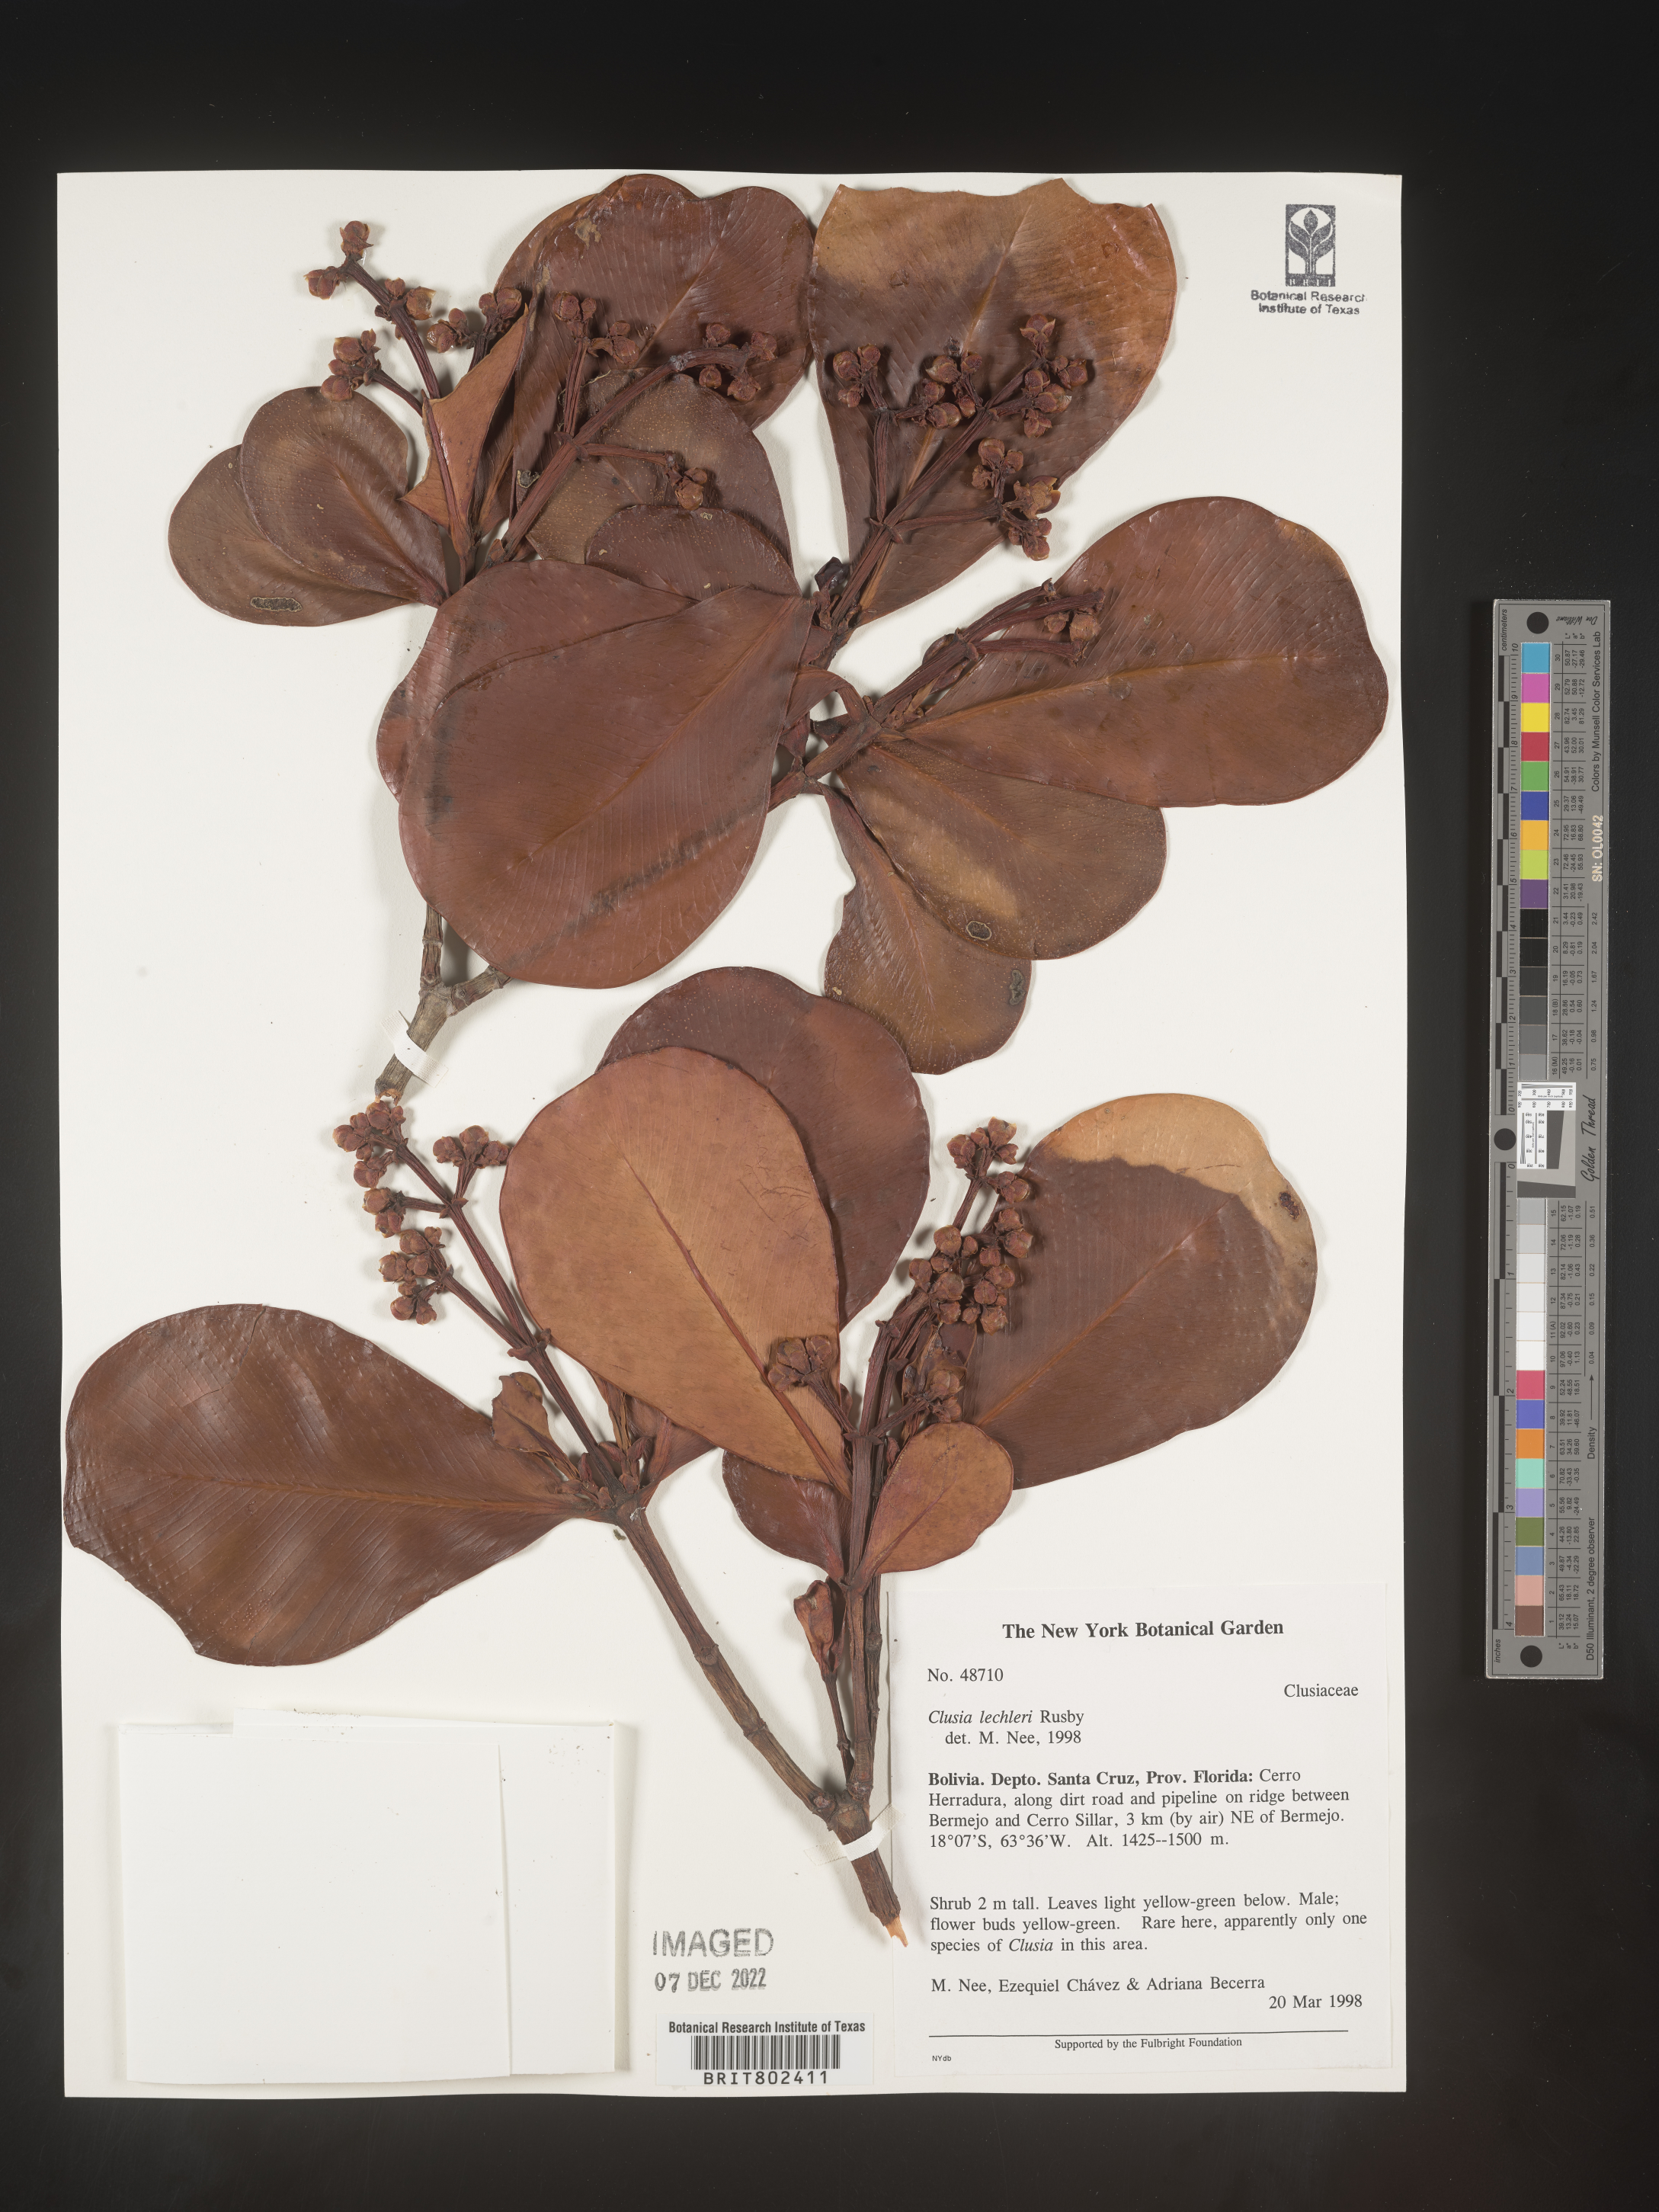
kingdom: Plantae
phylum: Tracheophyta
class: Magnoliopsida
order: Malpighiales
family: Clusiaceae
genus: Clusia
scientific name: Clusia
